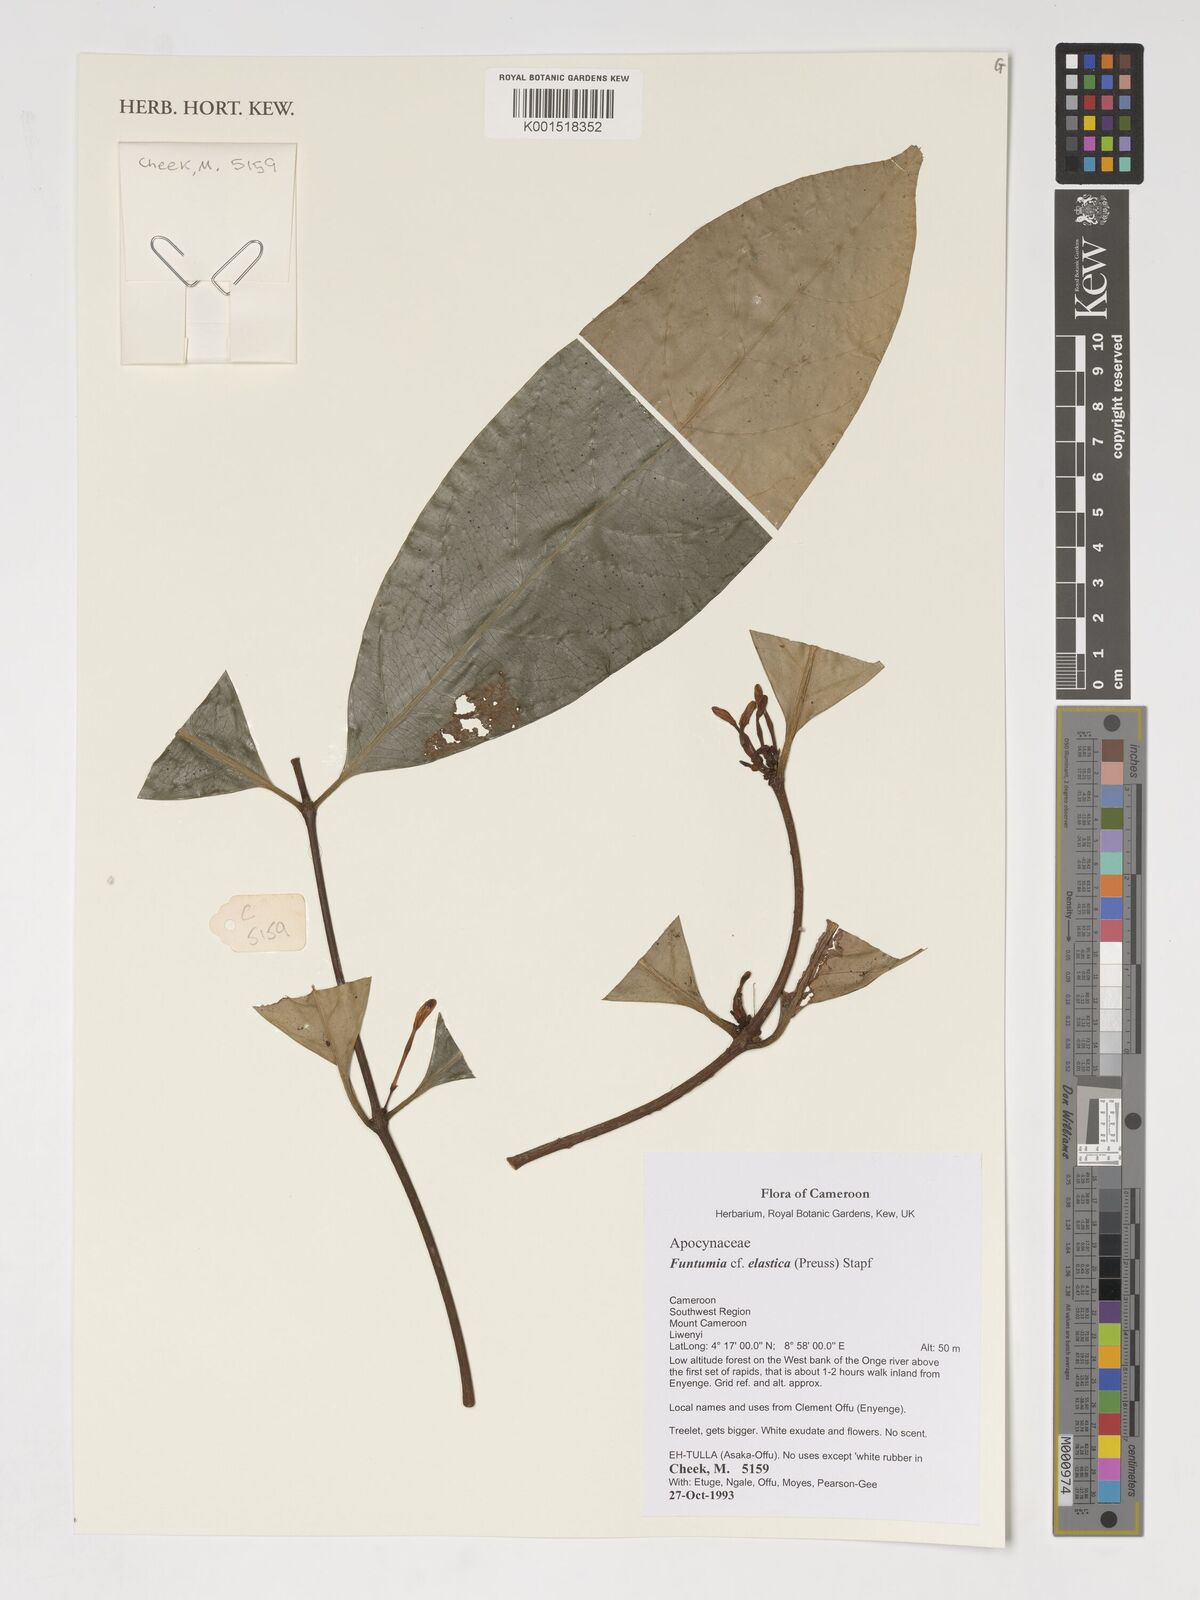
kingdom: Plantae
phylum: Tracheophyta
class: Magnoliopsida
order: Gentianales
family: Apocynaceae
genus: Funtumia
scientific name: Funtumia elastica
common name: Silkrubber
